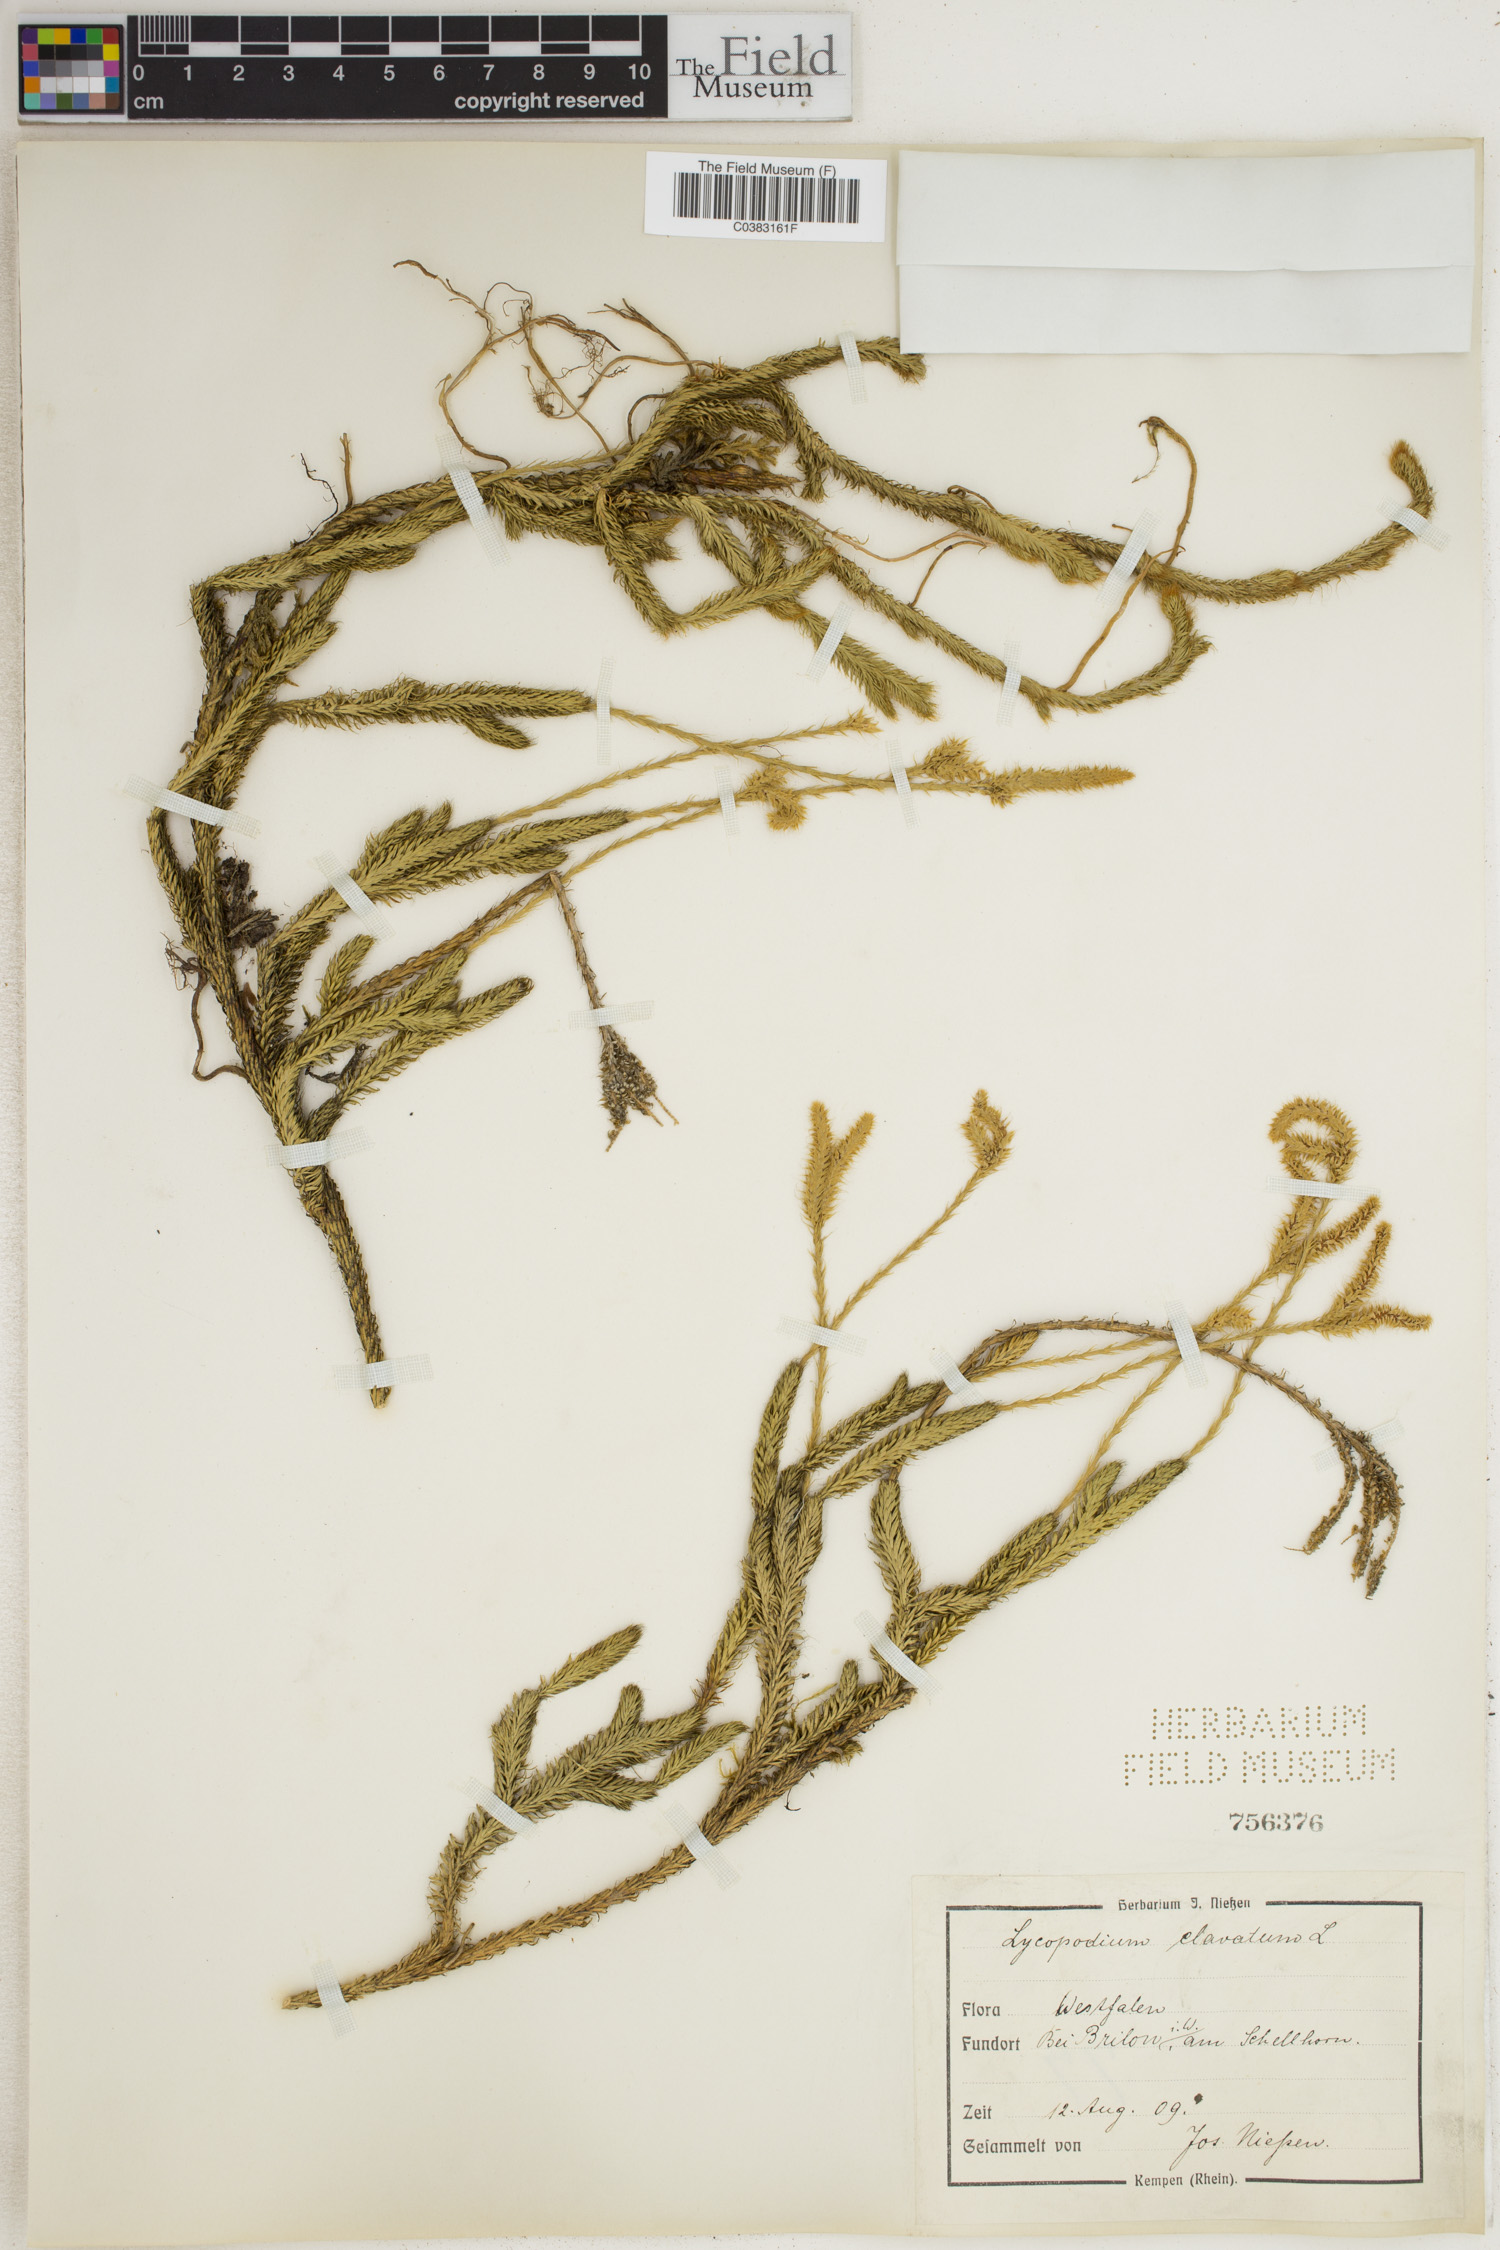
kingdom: Plantae
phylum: Tracheophyta
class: Lycopodiopsida
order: Lycopodiales
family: Lycopodiaceae
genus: Lycopodium
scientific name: Lycopodium clavatum
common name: Stag's-horn clubmoss
